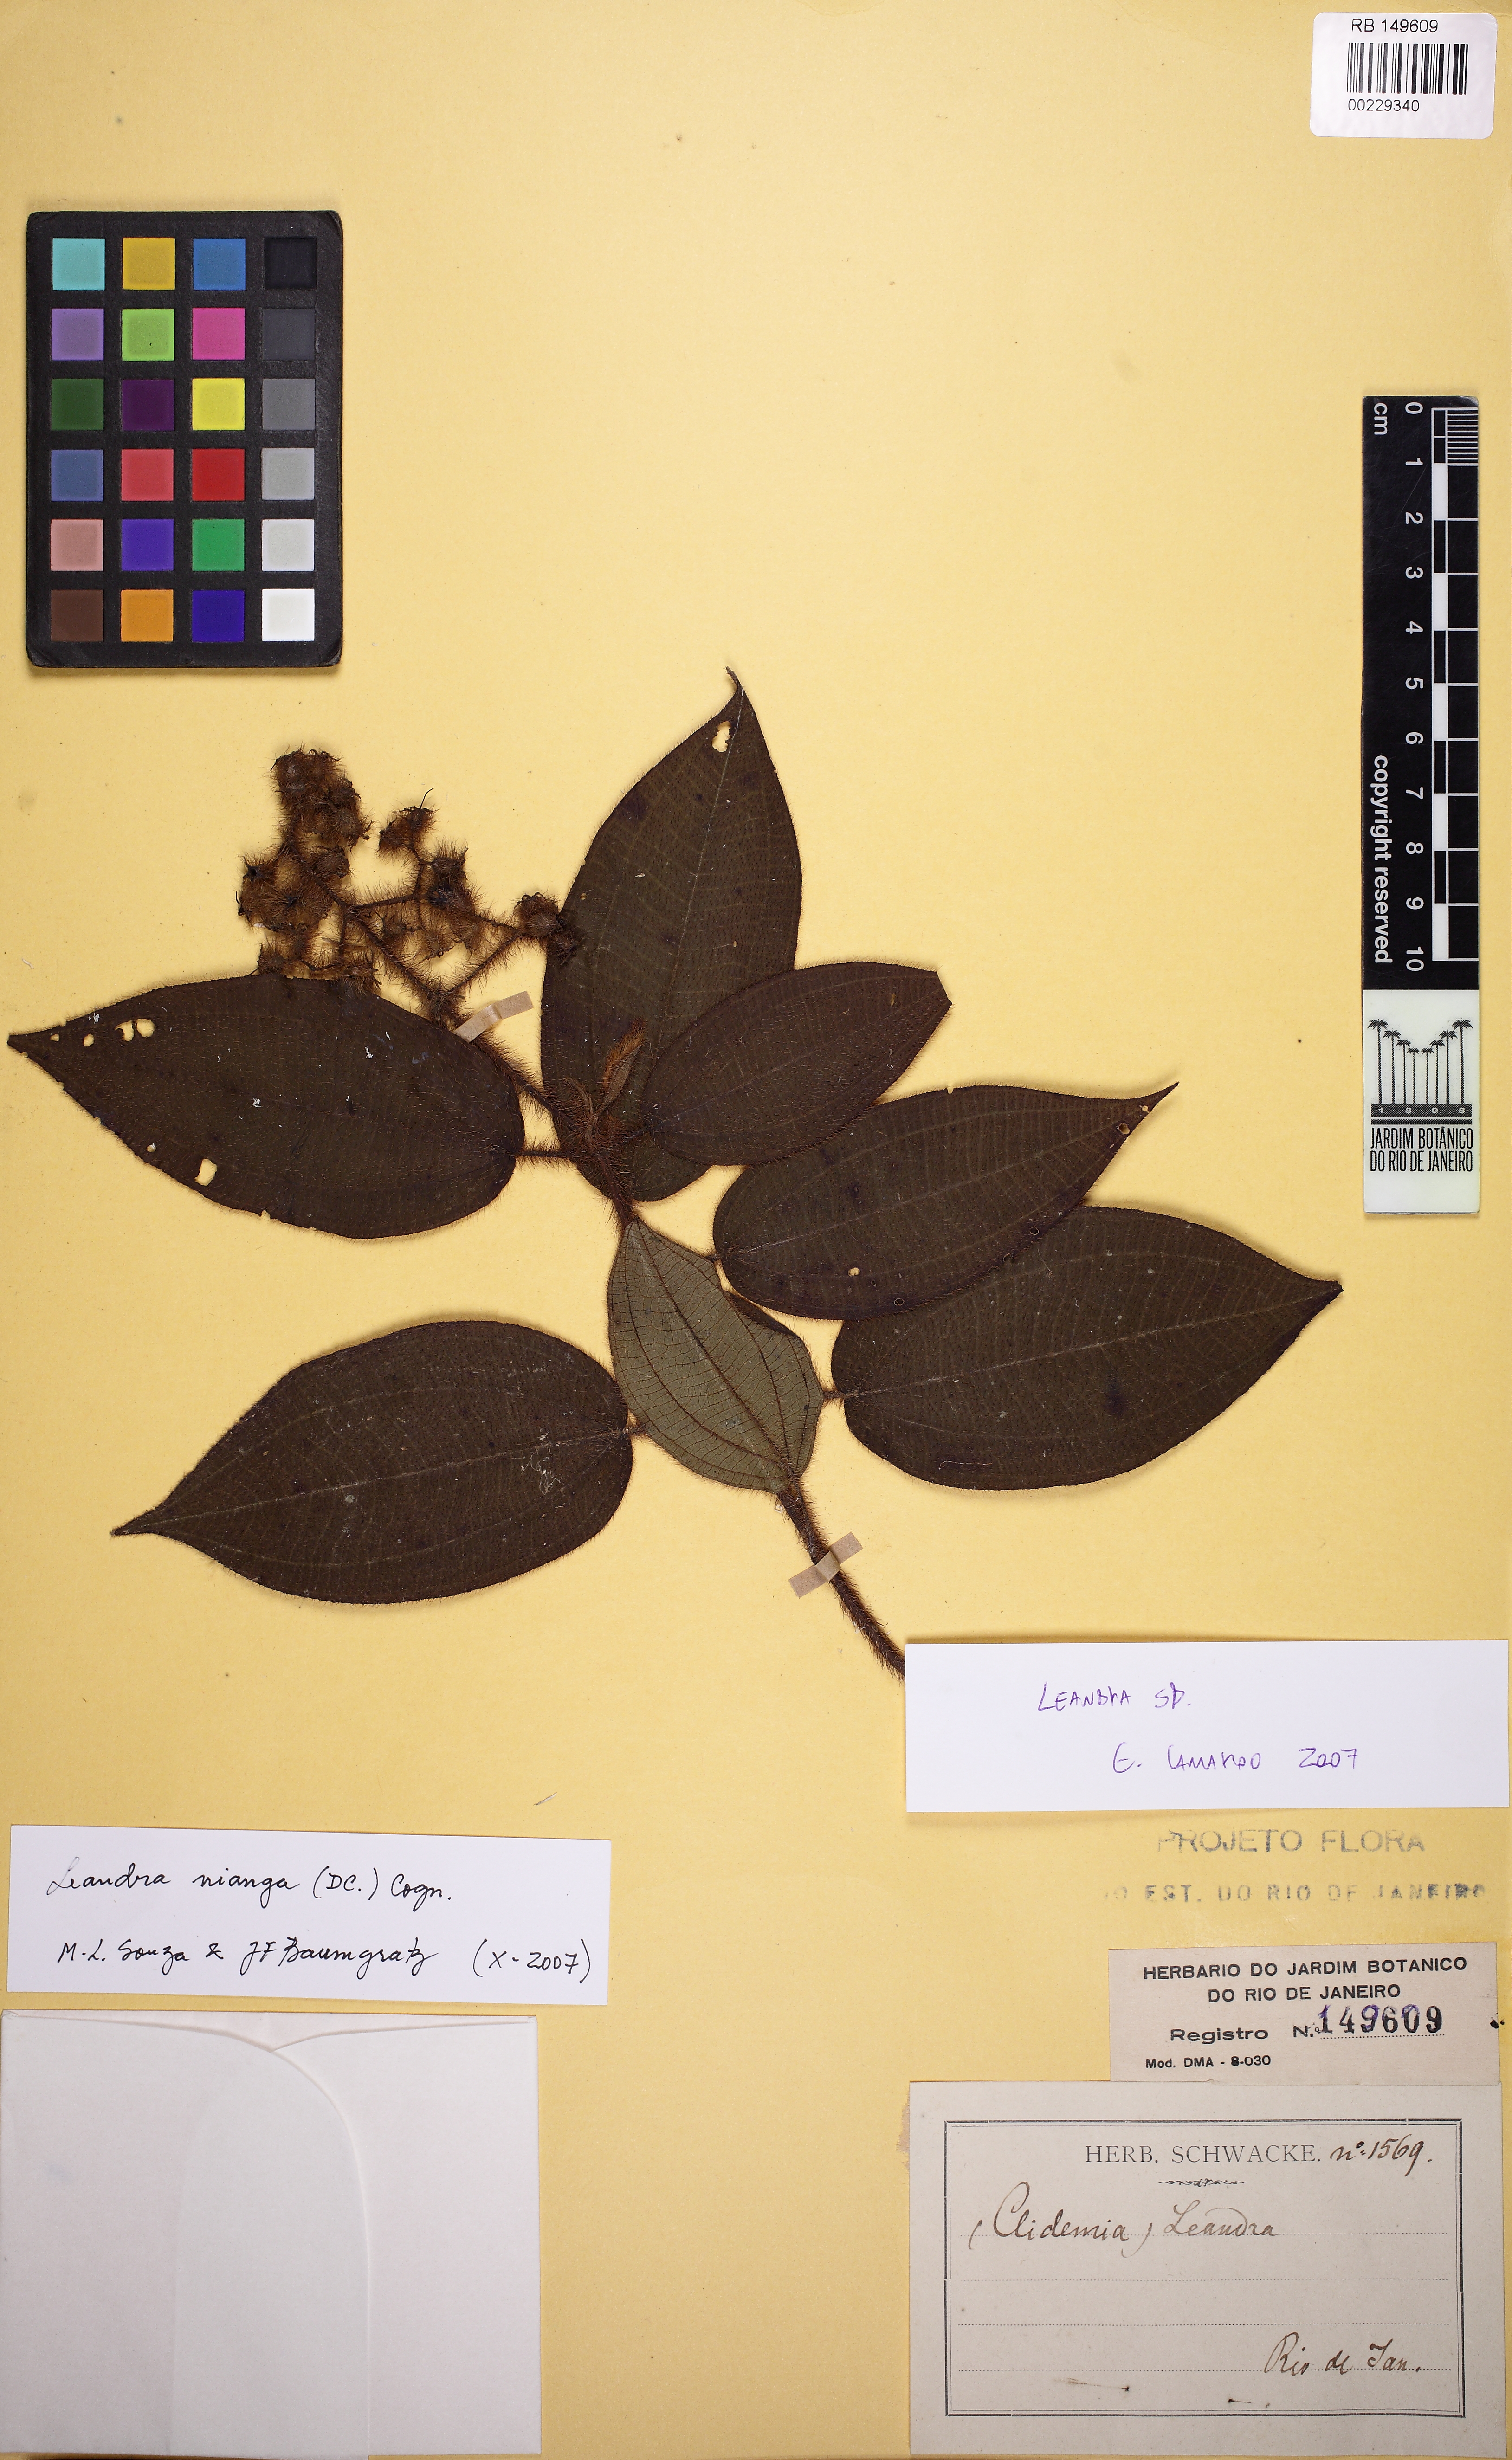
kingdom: Plantae
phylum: Tracheophyta
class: Magnoliopsida
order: Myrtales
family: Melastomataceae
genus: Miconia
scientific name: Miconia nianga
